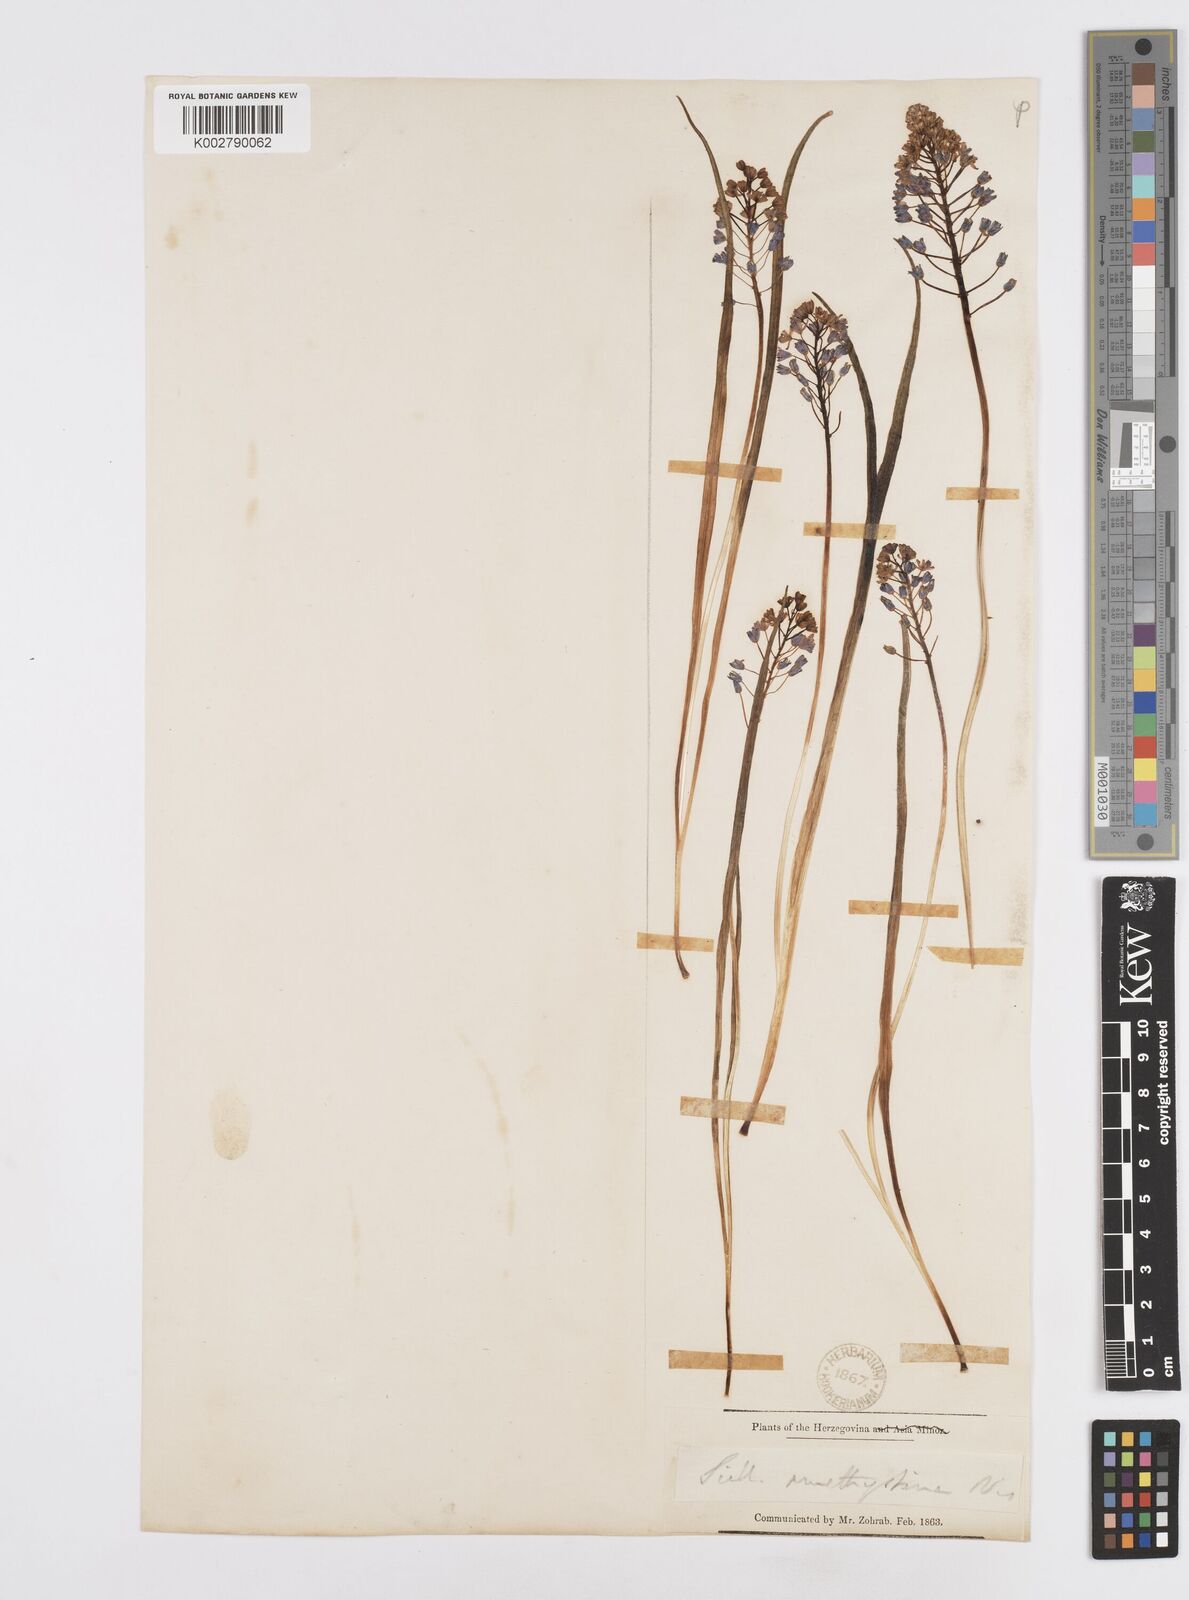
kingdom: Plantae
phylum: Tracheophyta
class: Liliopsida
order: Asparagales
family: Asparagaceae
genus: Scilla
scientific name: Scilla litardierei
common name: Amethyst meadow squill
